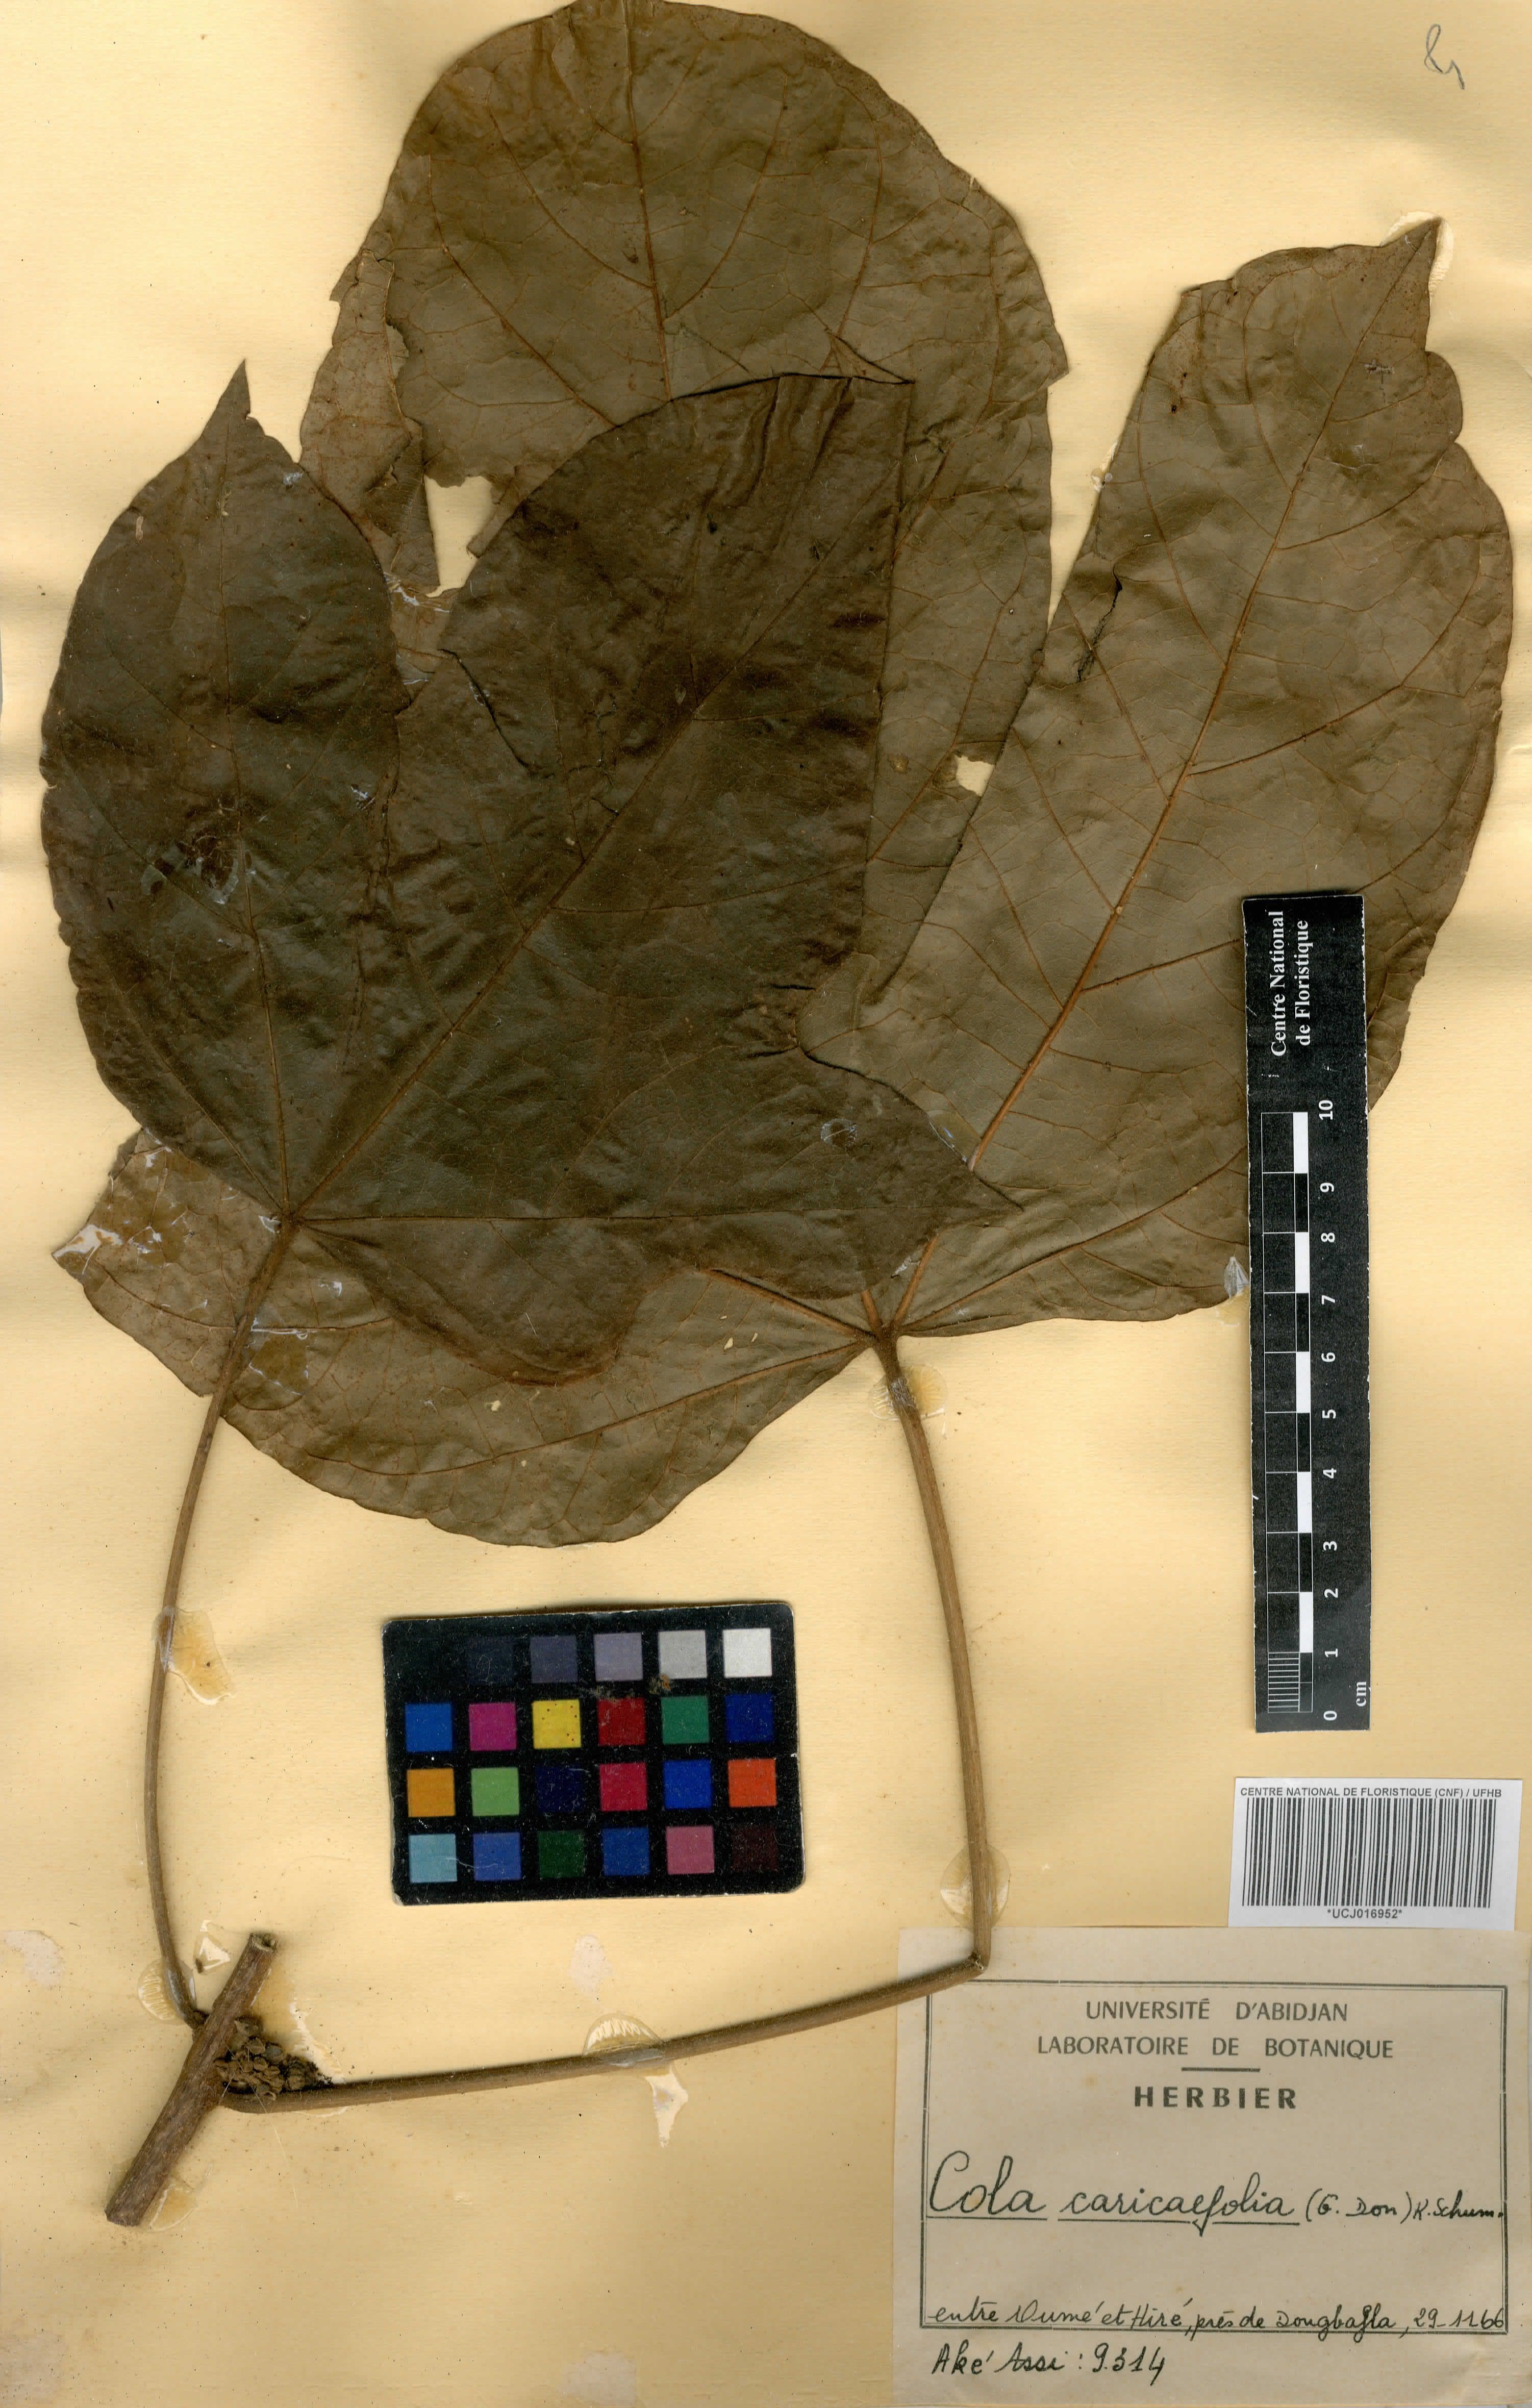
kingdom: Plantae
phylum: Tracheophyta
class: Magnoliopsida
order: Malvales
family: Malvaceae
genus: Cola
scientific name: Cola caricifolia
